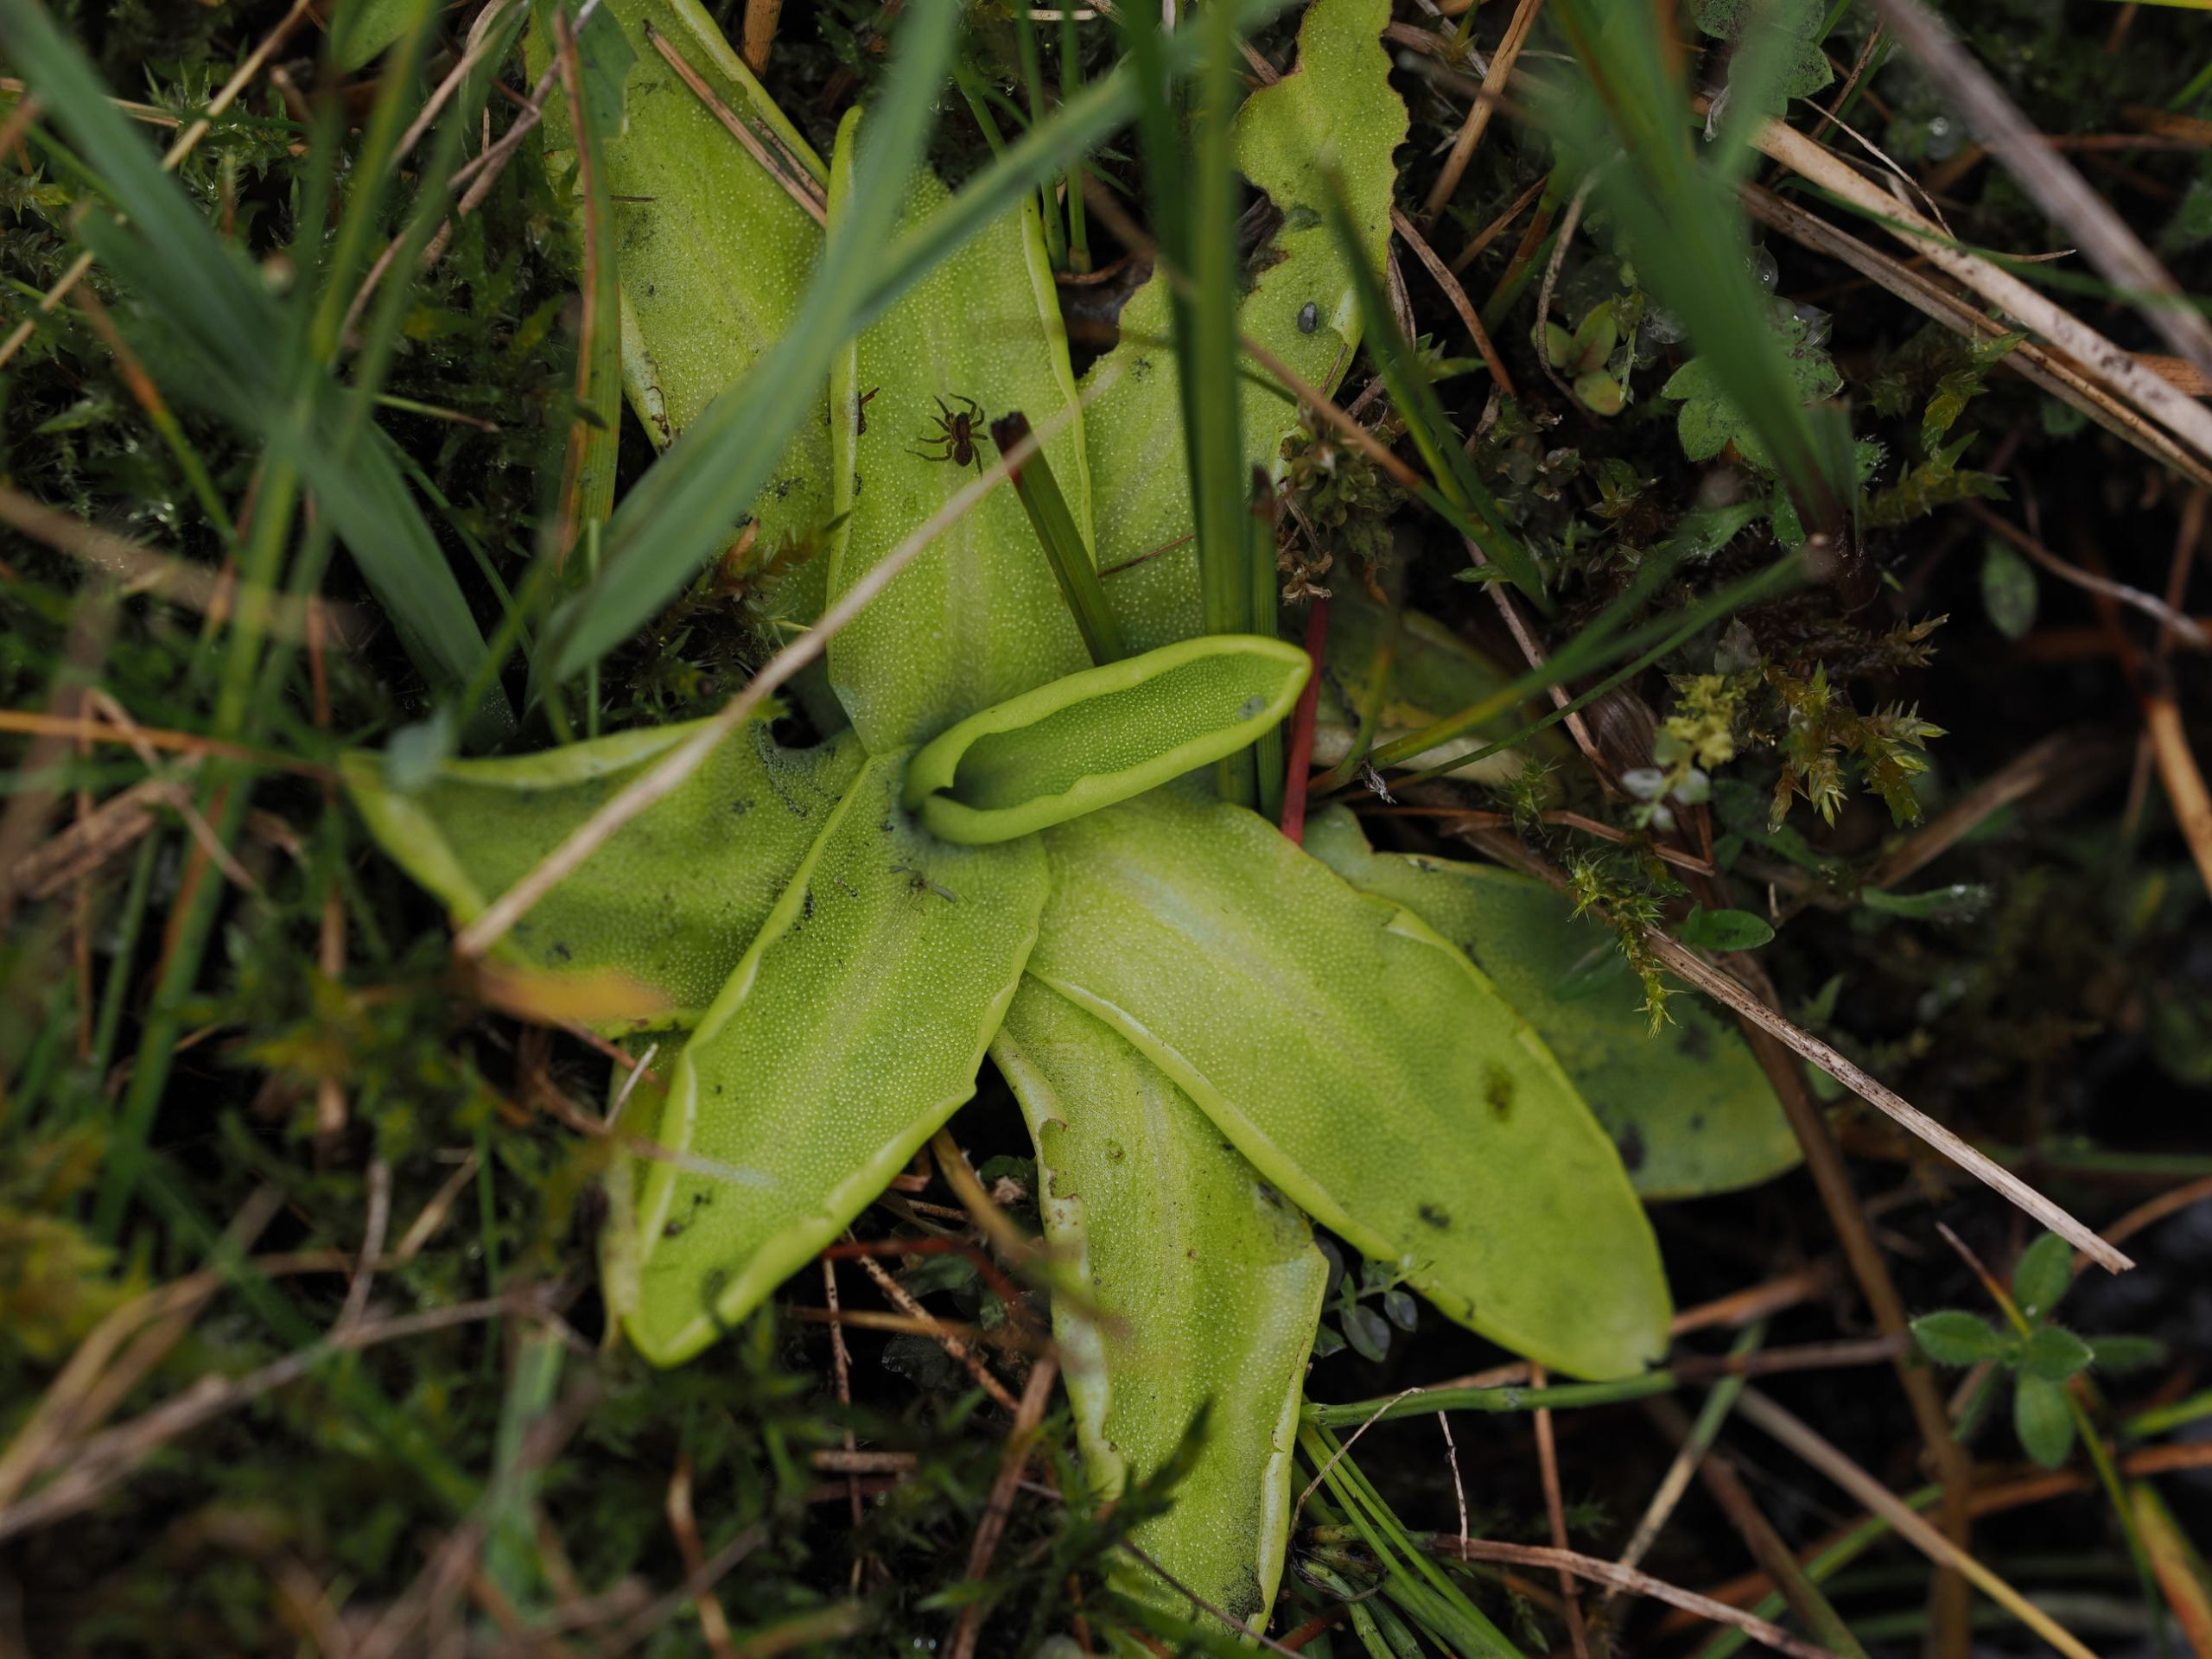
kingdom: Plantae
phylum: Tracheophyta
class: Magnoliopsida
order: Lamiales
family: Lentibulariaceae
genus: Pinguicula
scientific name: Pinguicula vulgaris
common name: Vibefedt
